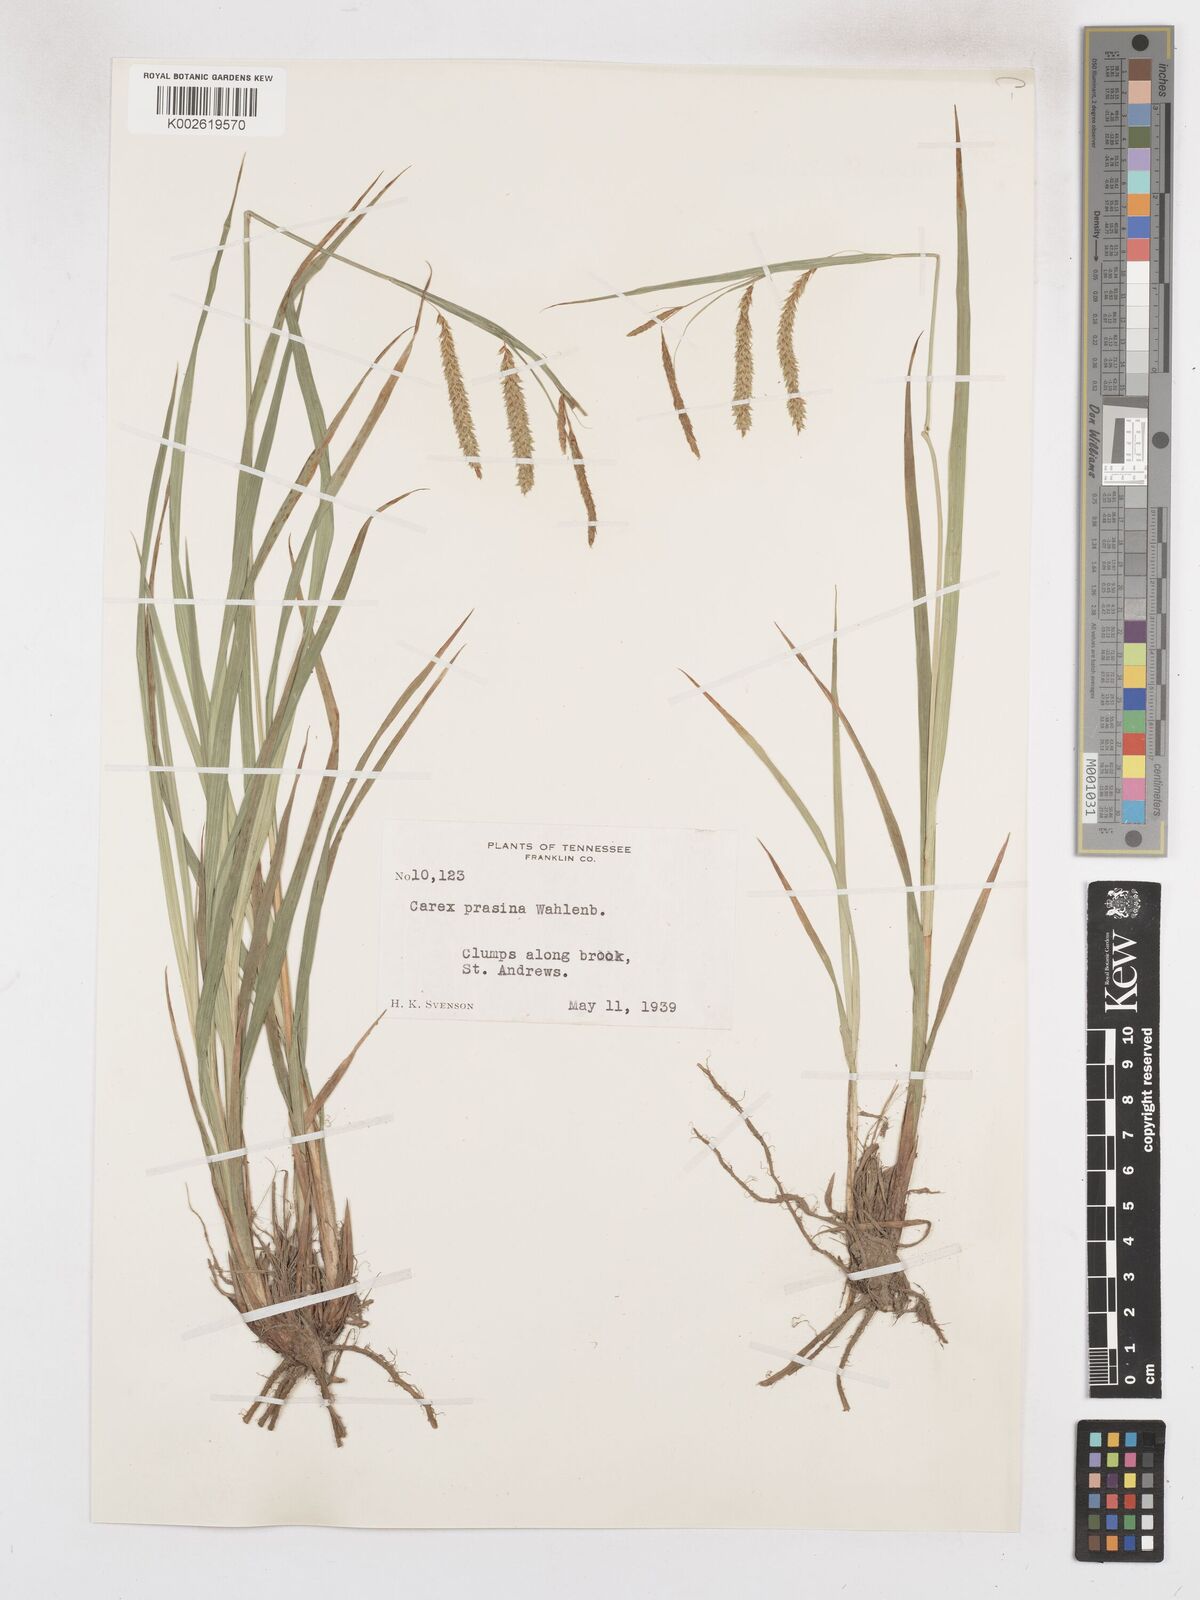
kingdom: Plantae
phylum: Tracheophyta
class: Liliopsida
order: Poales
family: Cyperaceae
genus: Carex
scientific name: Carex prasina
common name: Drooping sedge
